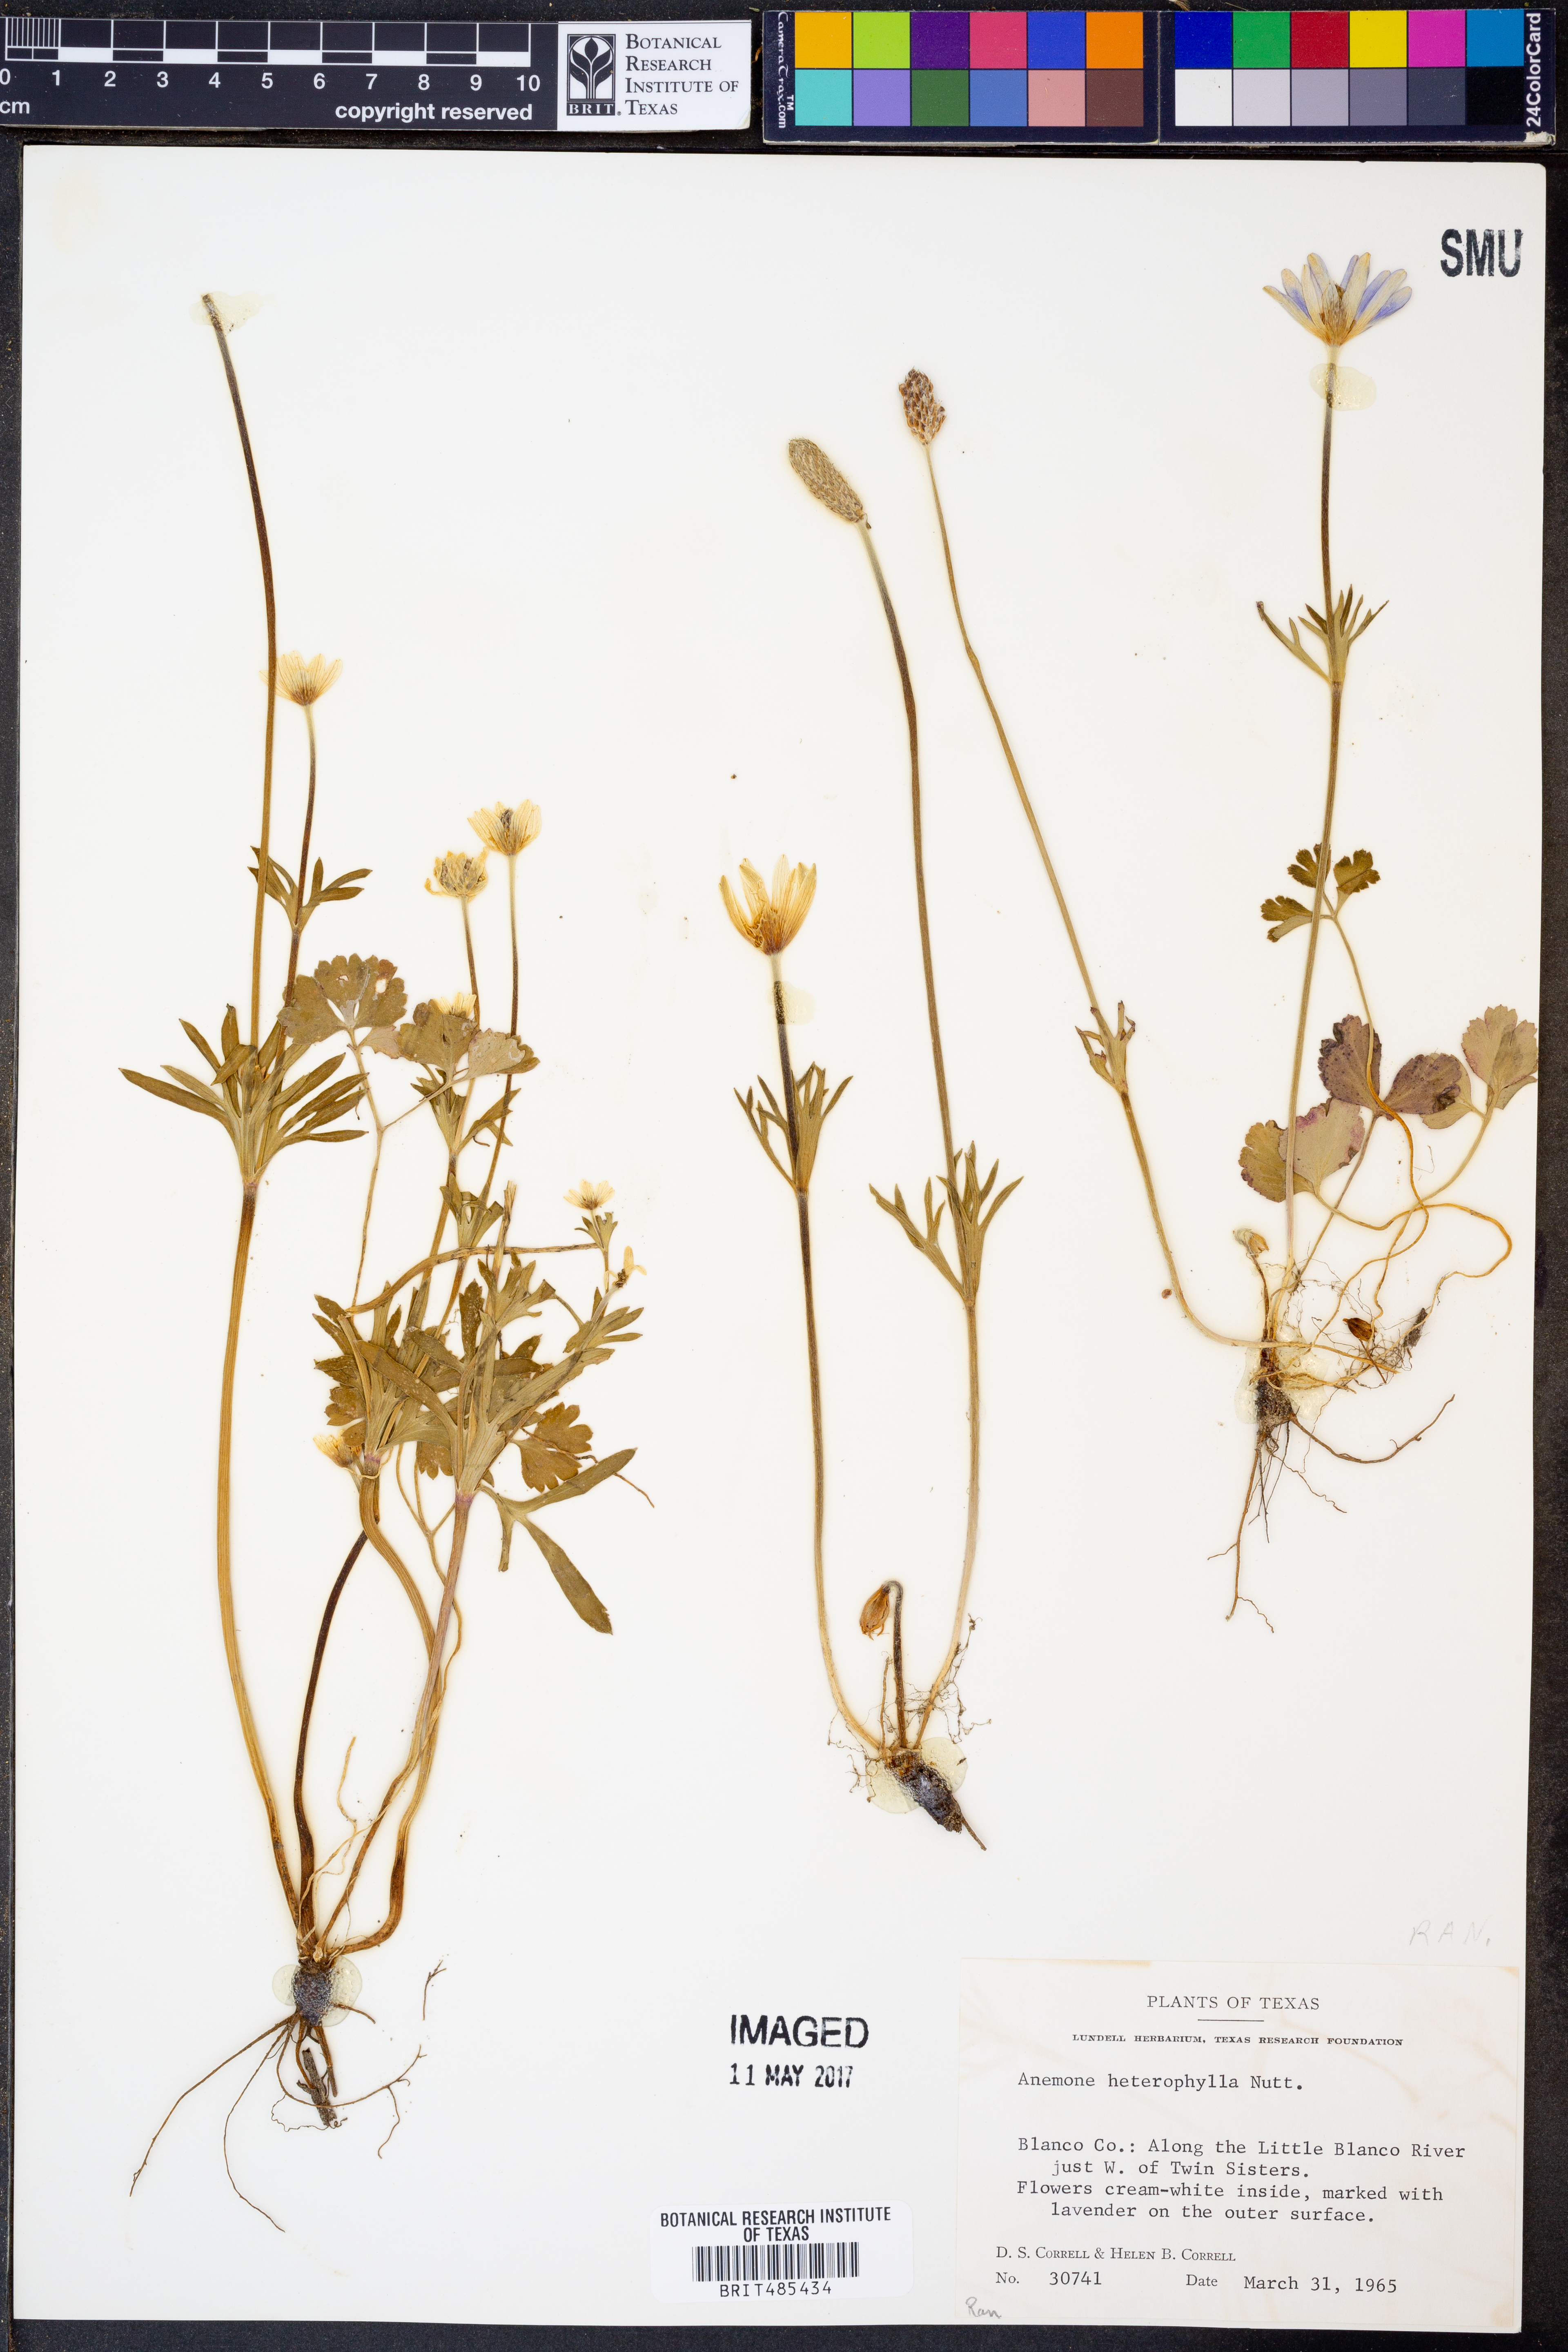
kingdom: Plantae
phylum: Tracheophyta
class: Magnoliopsida
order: Ranunculales
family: Ranunculaceae
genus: Anemone
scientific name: Anemone heterophylla
